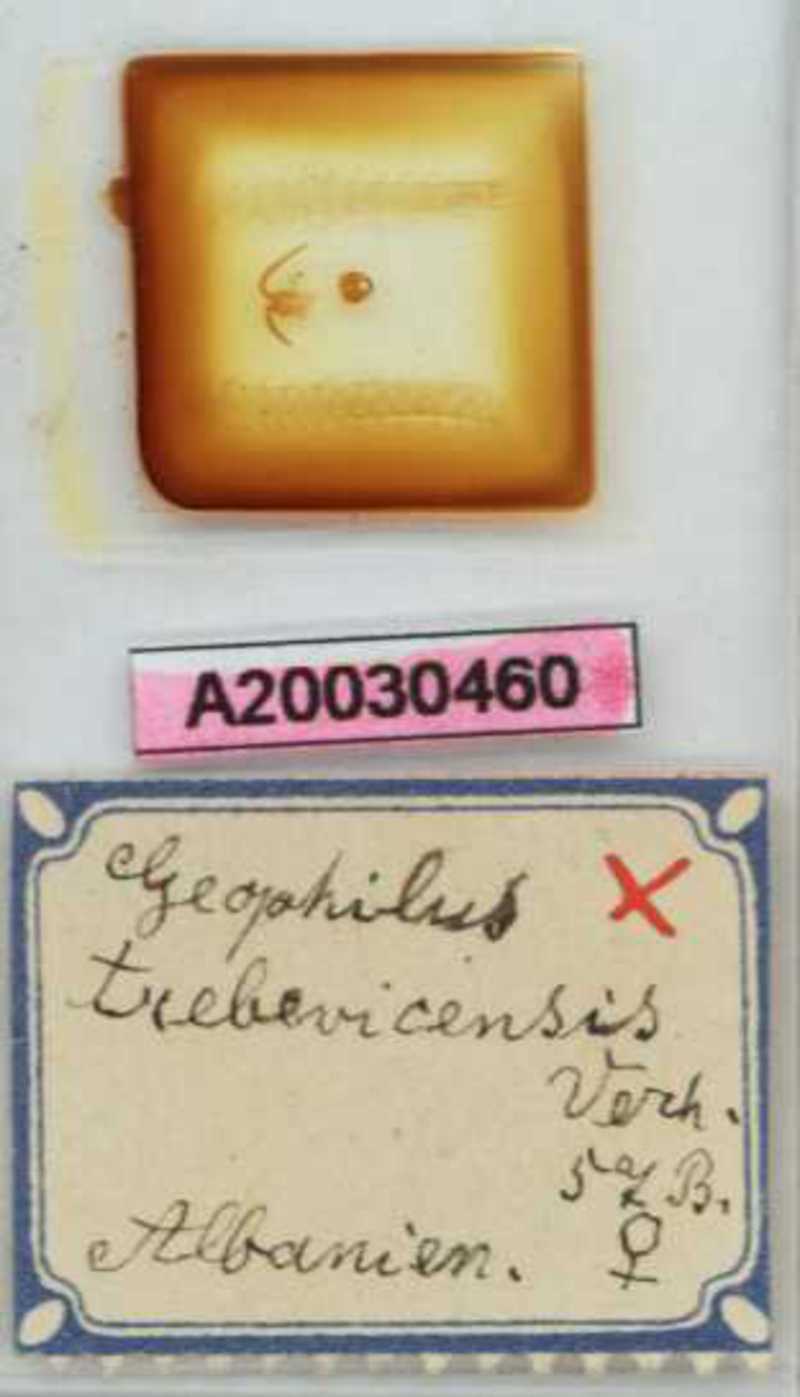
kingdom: Animalia
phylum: Arthropoda
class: Chilopoda
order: Geophilomorpha
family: Geophilidae
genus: Clinopodes
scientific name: Clinopodes trebevicensis
